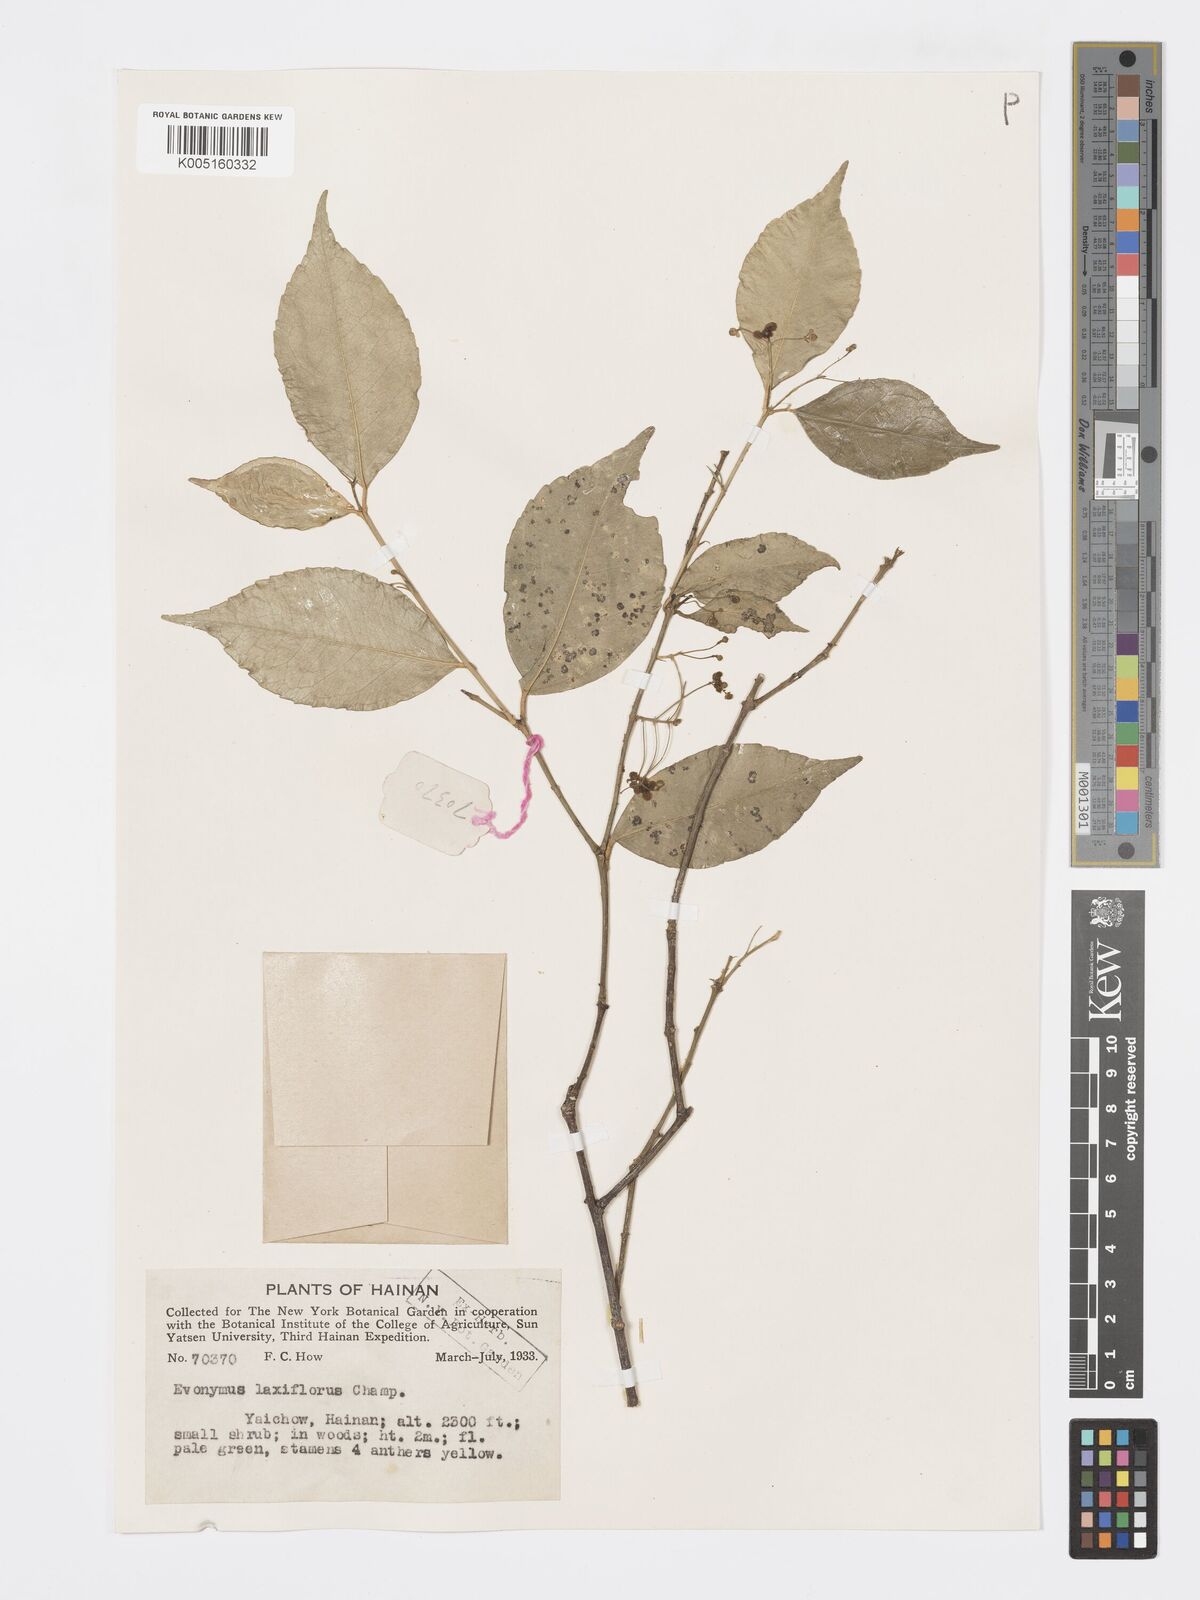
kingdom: Plantae
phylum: Tracheophyta
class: Magnoliopsida
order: Celastrales
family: Celastraceae
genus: Euonymus
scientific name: Euonymus
